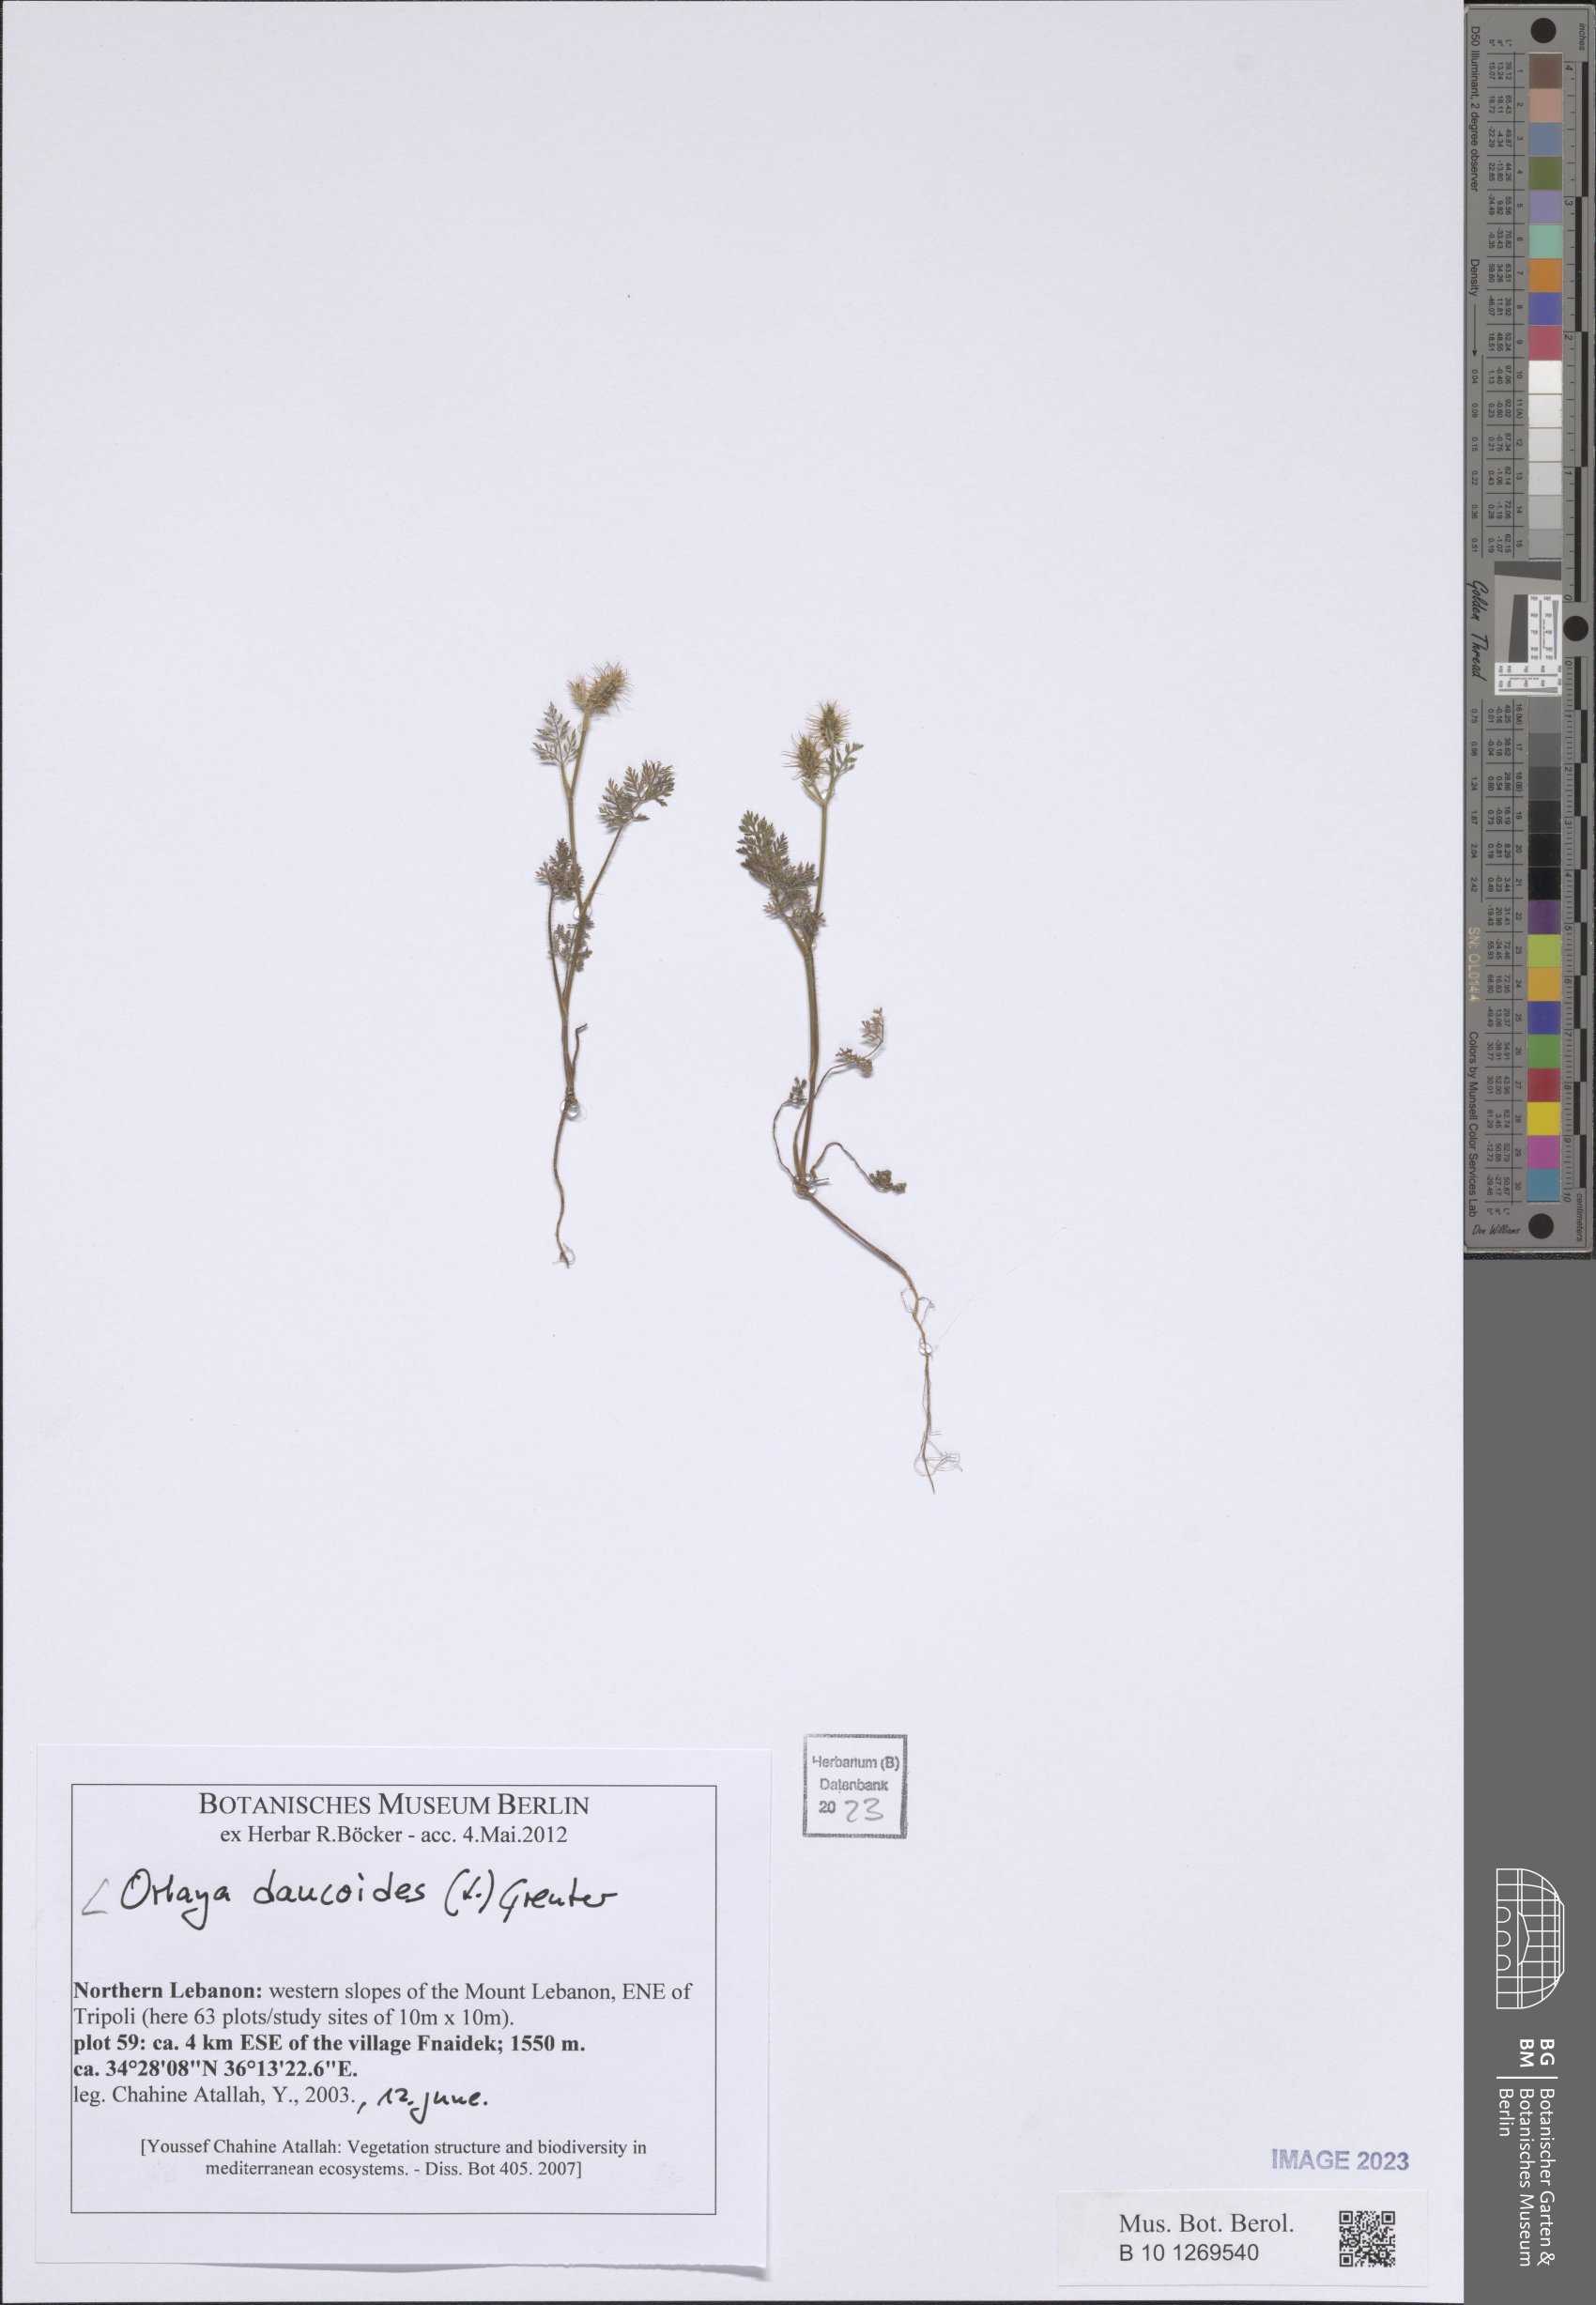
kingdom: Plantae
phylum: Tracheophyta
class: Magnoliopsida
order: Apiales
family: Apiaceae
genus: Orlaya
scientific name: Orlaya daucoides
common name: Flat-fruit orlaya
